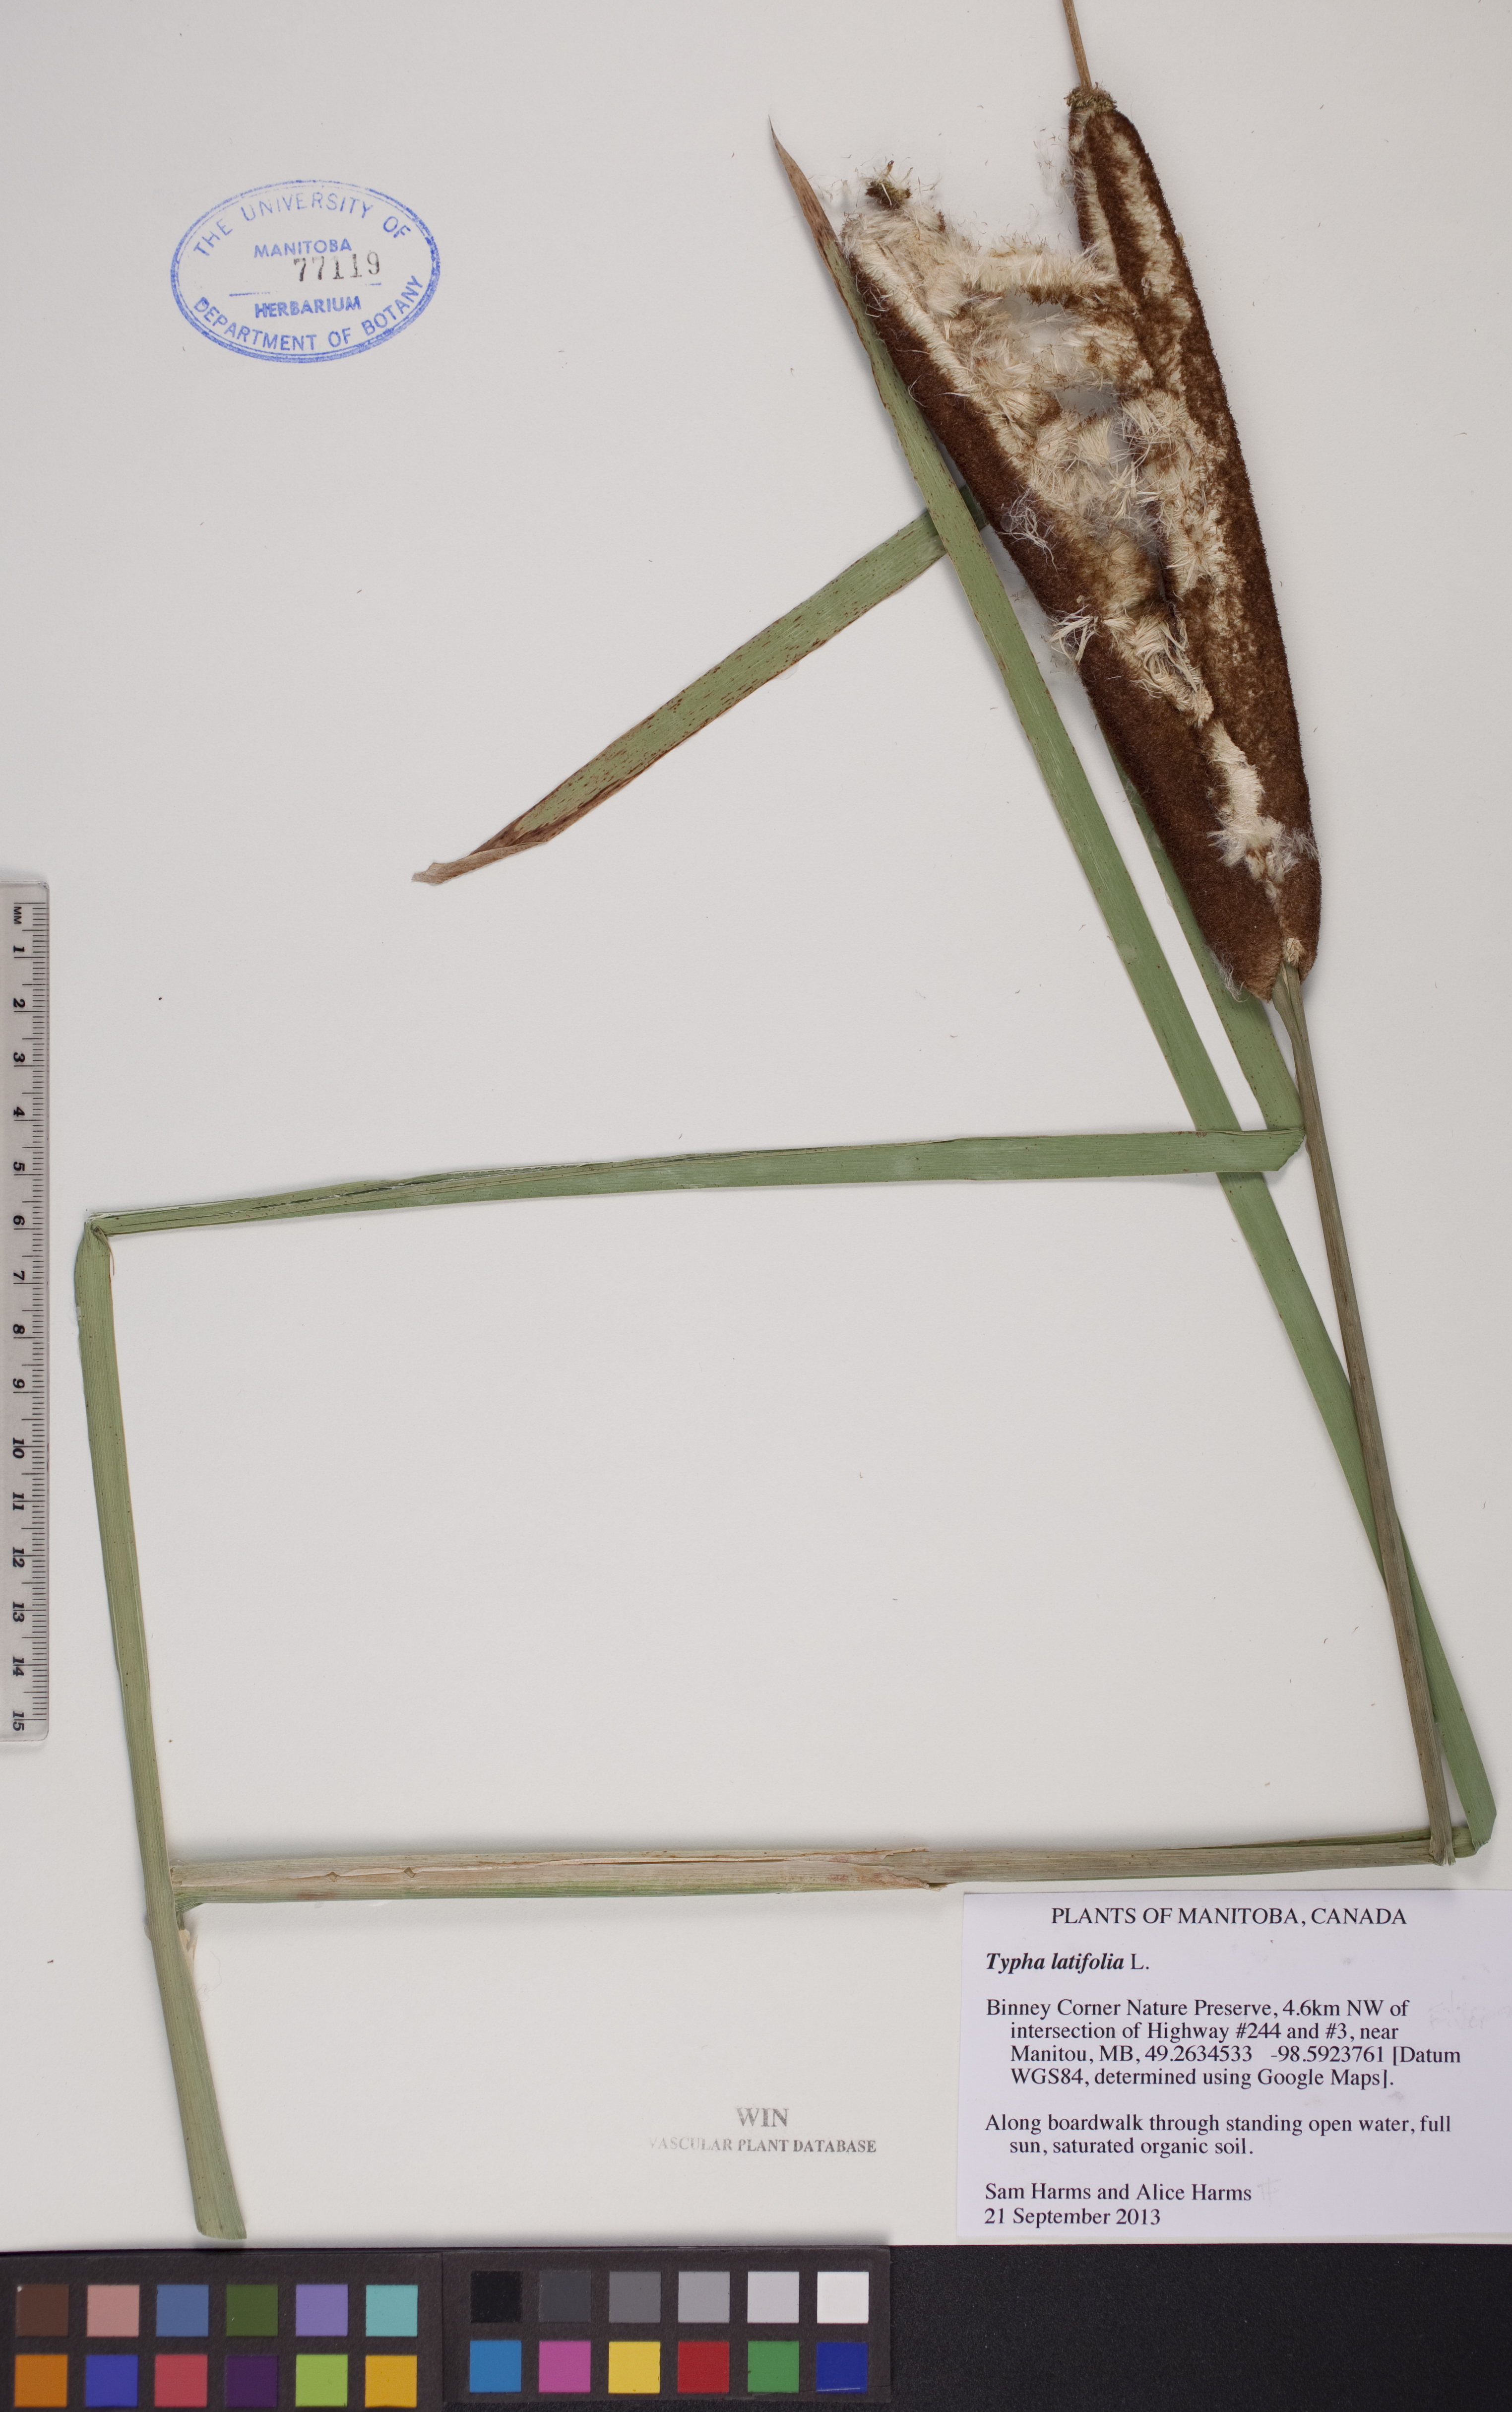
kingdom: Plantae
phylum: Tracheophyta
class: Liliopsida
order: Poales
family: Typhaceae
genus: Typha
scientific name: Typha latifolia
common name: Broadleaf cattail
